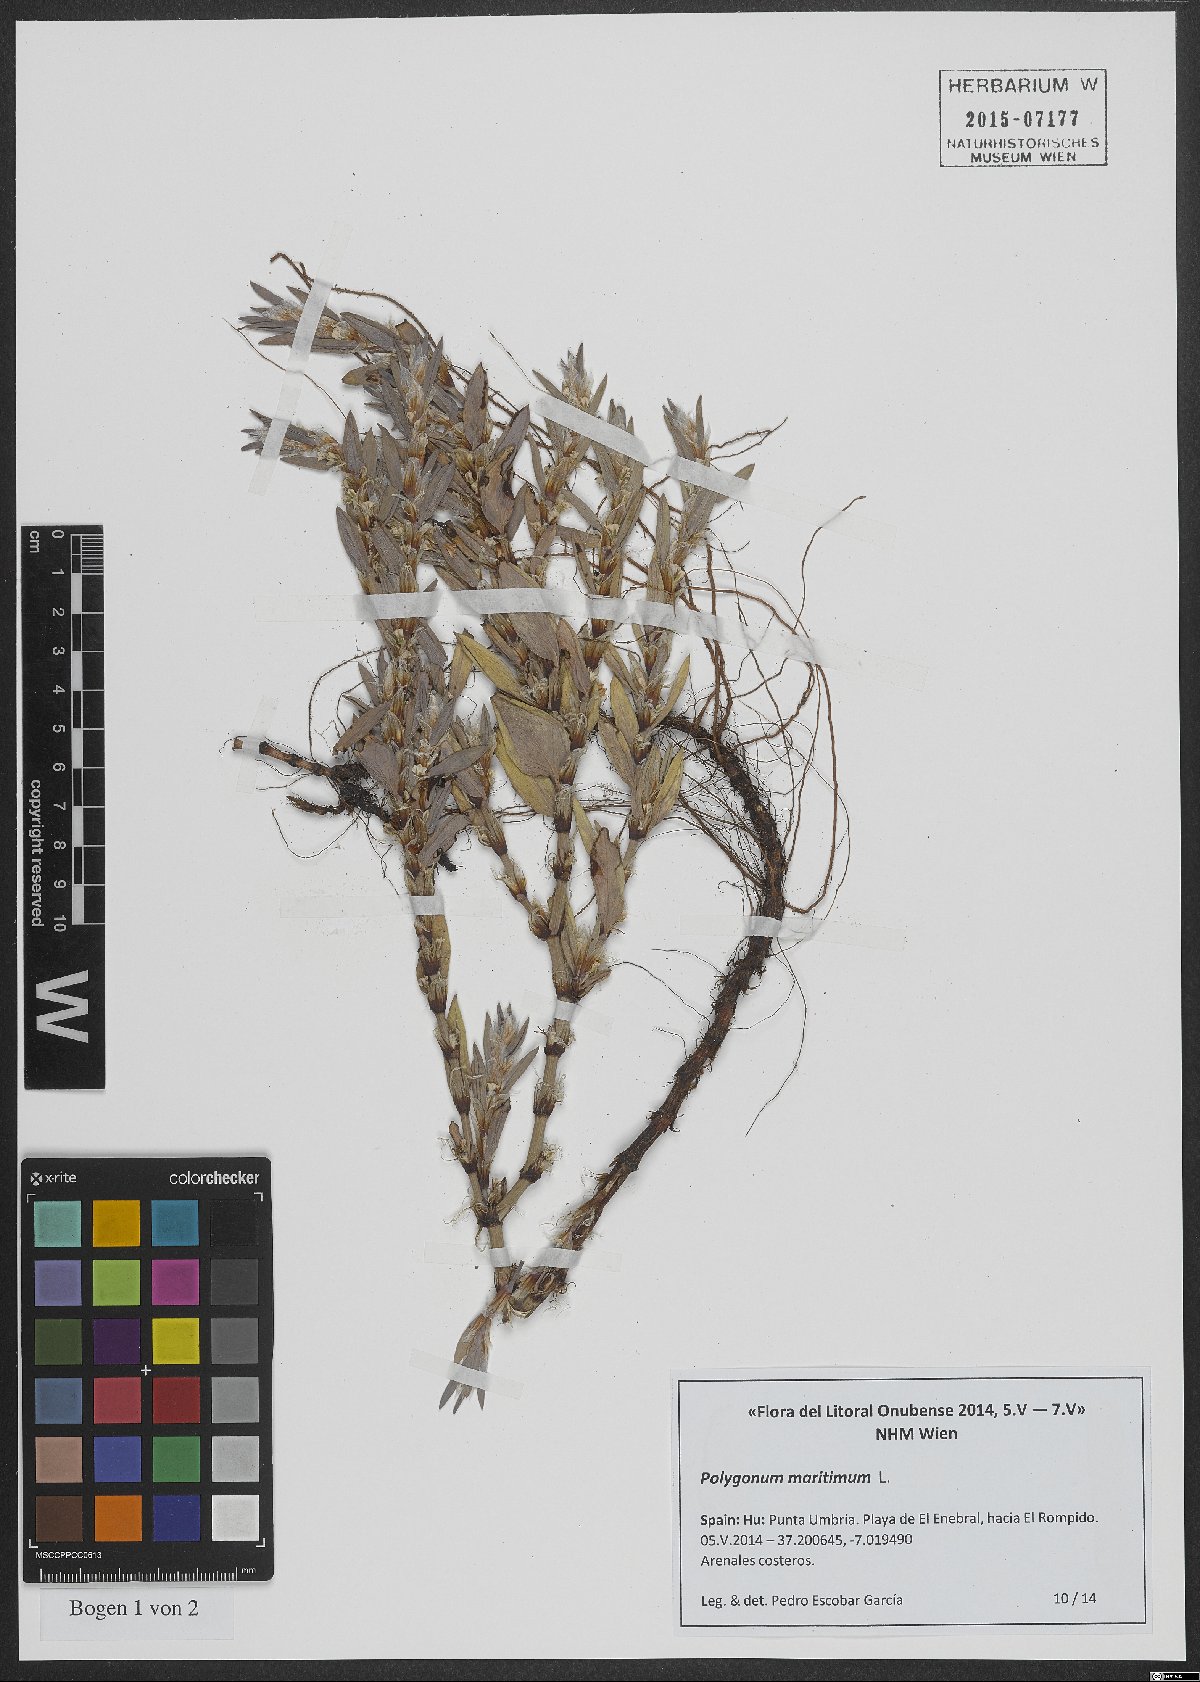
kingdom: Plantae
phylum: Tracheophyta
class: Magnoliopsida
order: Caryophyllales
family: Polygonaceae
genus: Polygonum
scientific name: Polygonum maritimum
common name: Sea knotgrass
